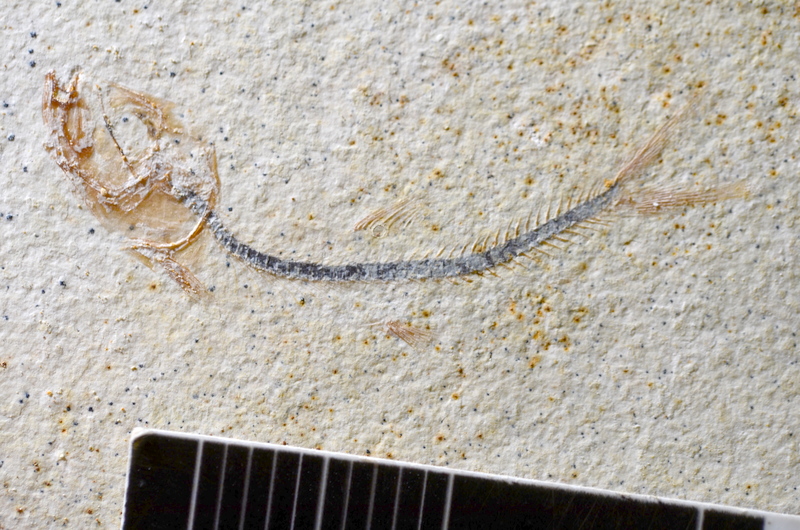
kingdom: Animalia
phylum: Chordata
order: Salmoniformes
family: Orthogonikleithridae
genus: Orthogonikleithrus
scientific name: Orthogonikleithrus hoelli
